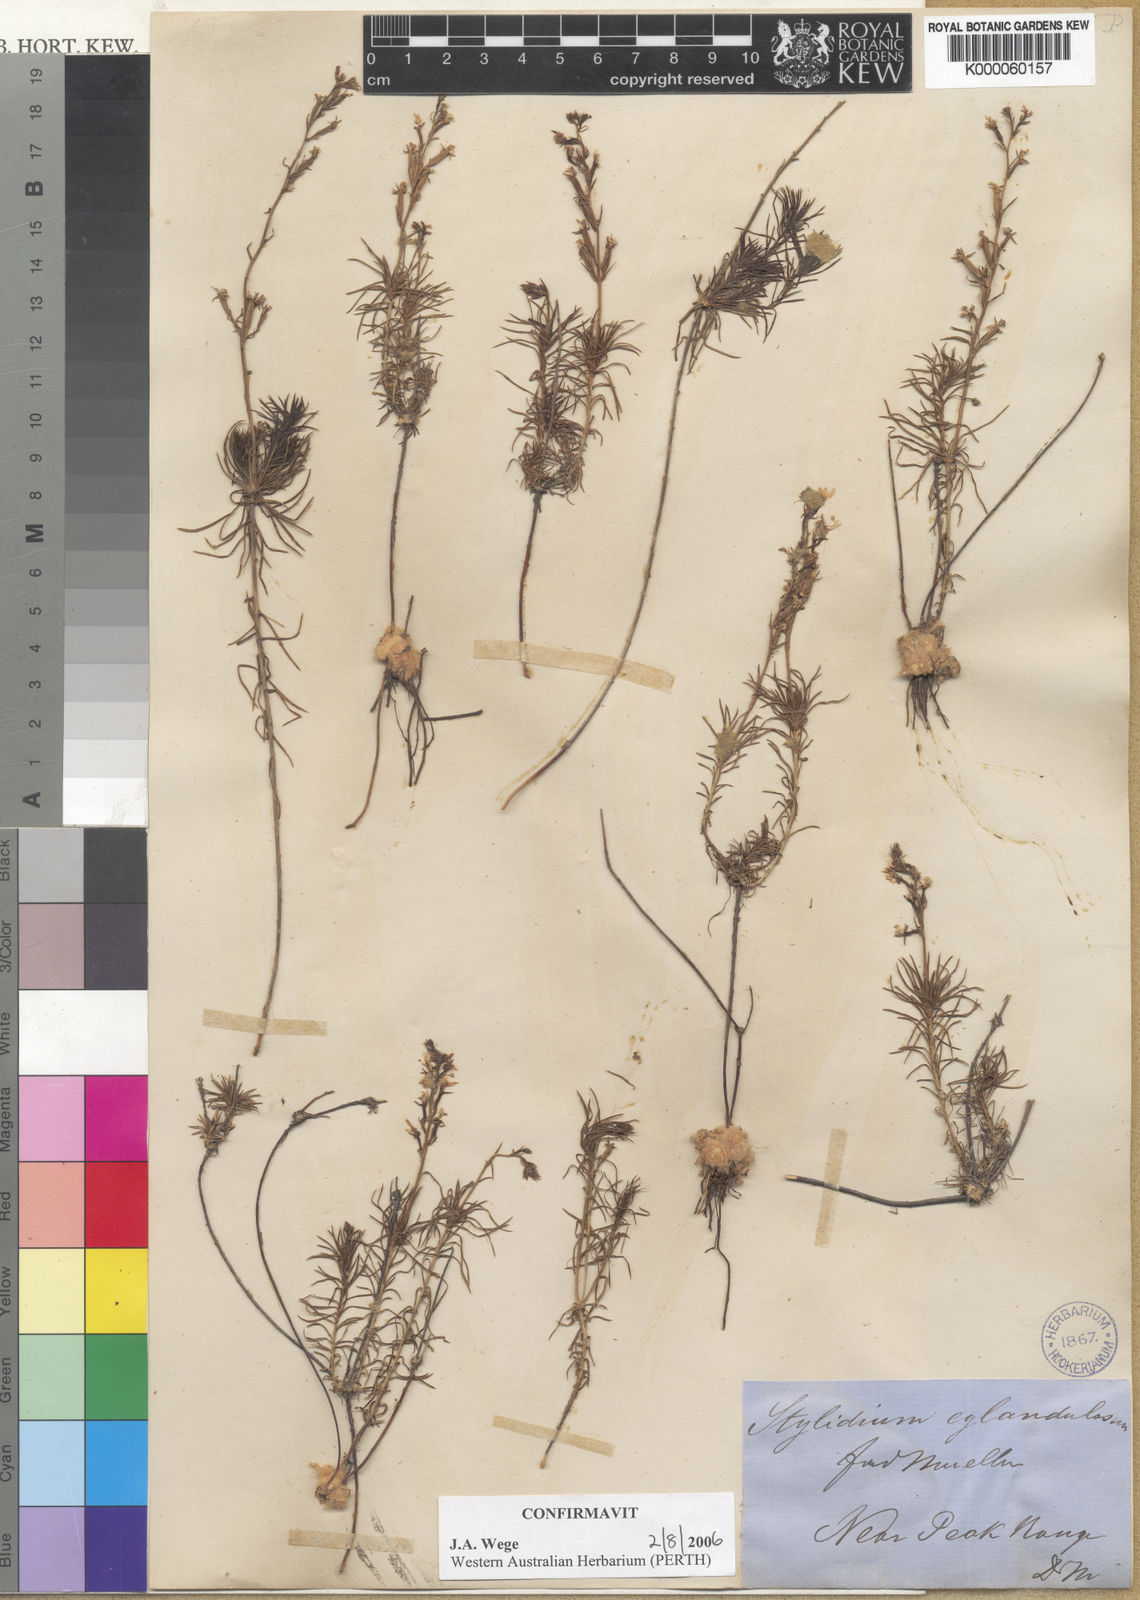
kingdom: Plantae
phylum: Tracheophyta
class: Magnoliopsida
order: Asterales
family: Stylidiaceae
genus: Stylidium
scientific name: Stylidium eglandulosum
